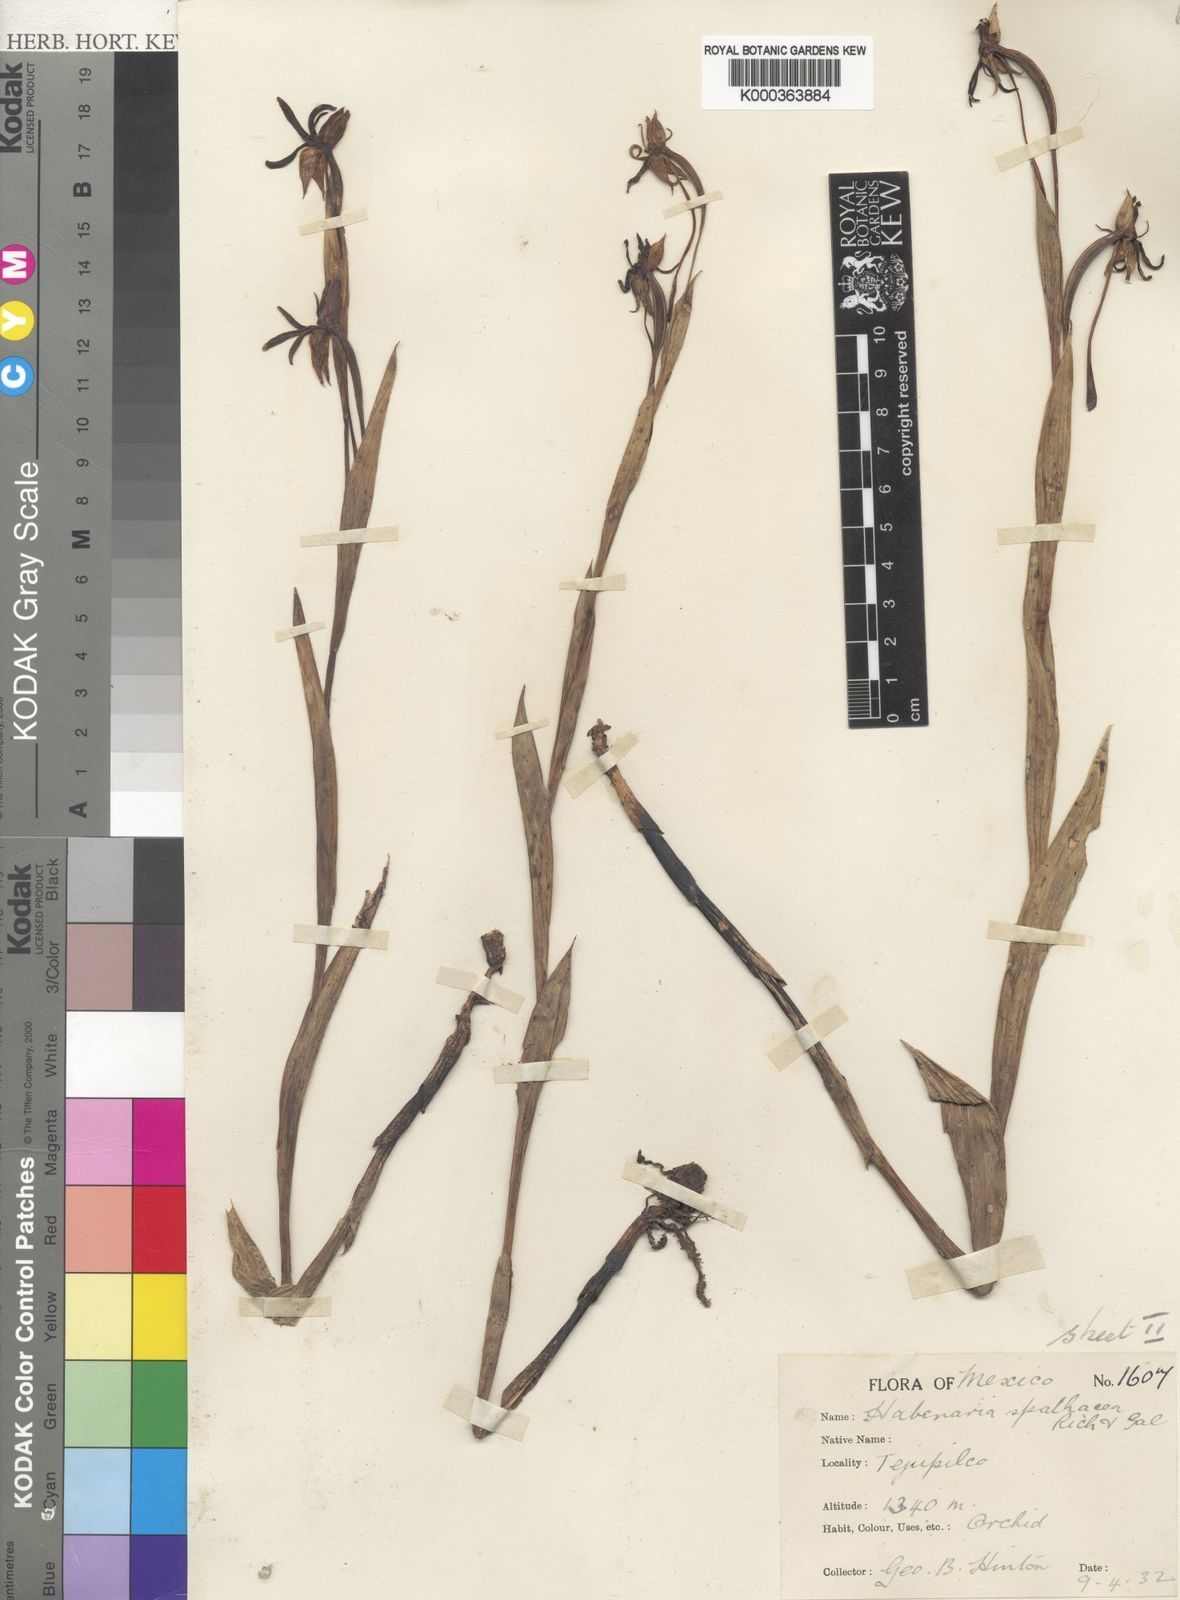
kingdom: Plantae
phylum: Tracheophyta
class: Liliopsida
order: Asparagales
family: Orchidaceae
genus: Habenaria
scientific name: Habenaria trifida
